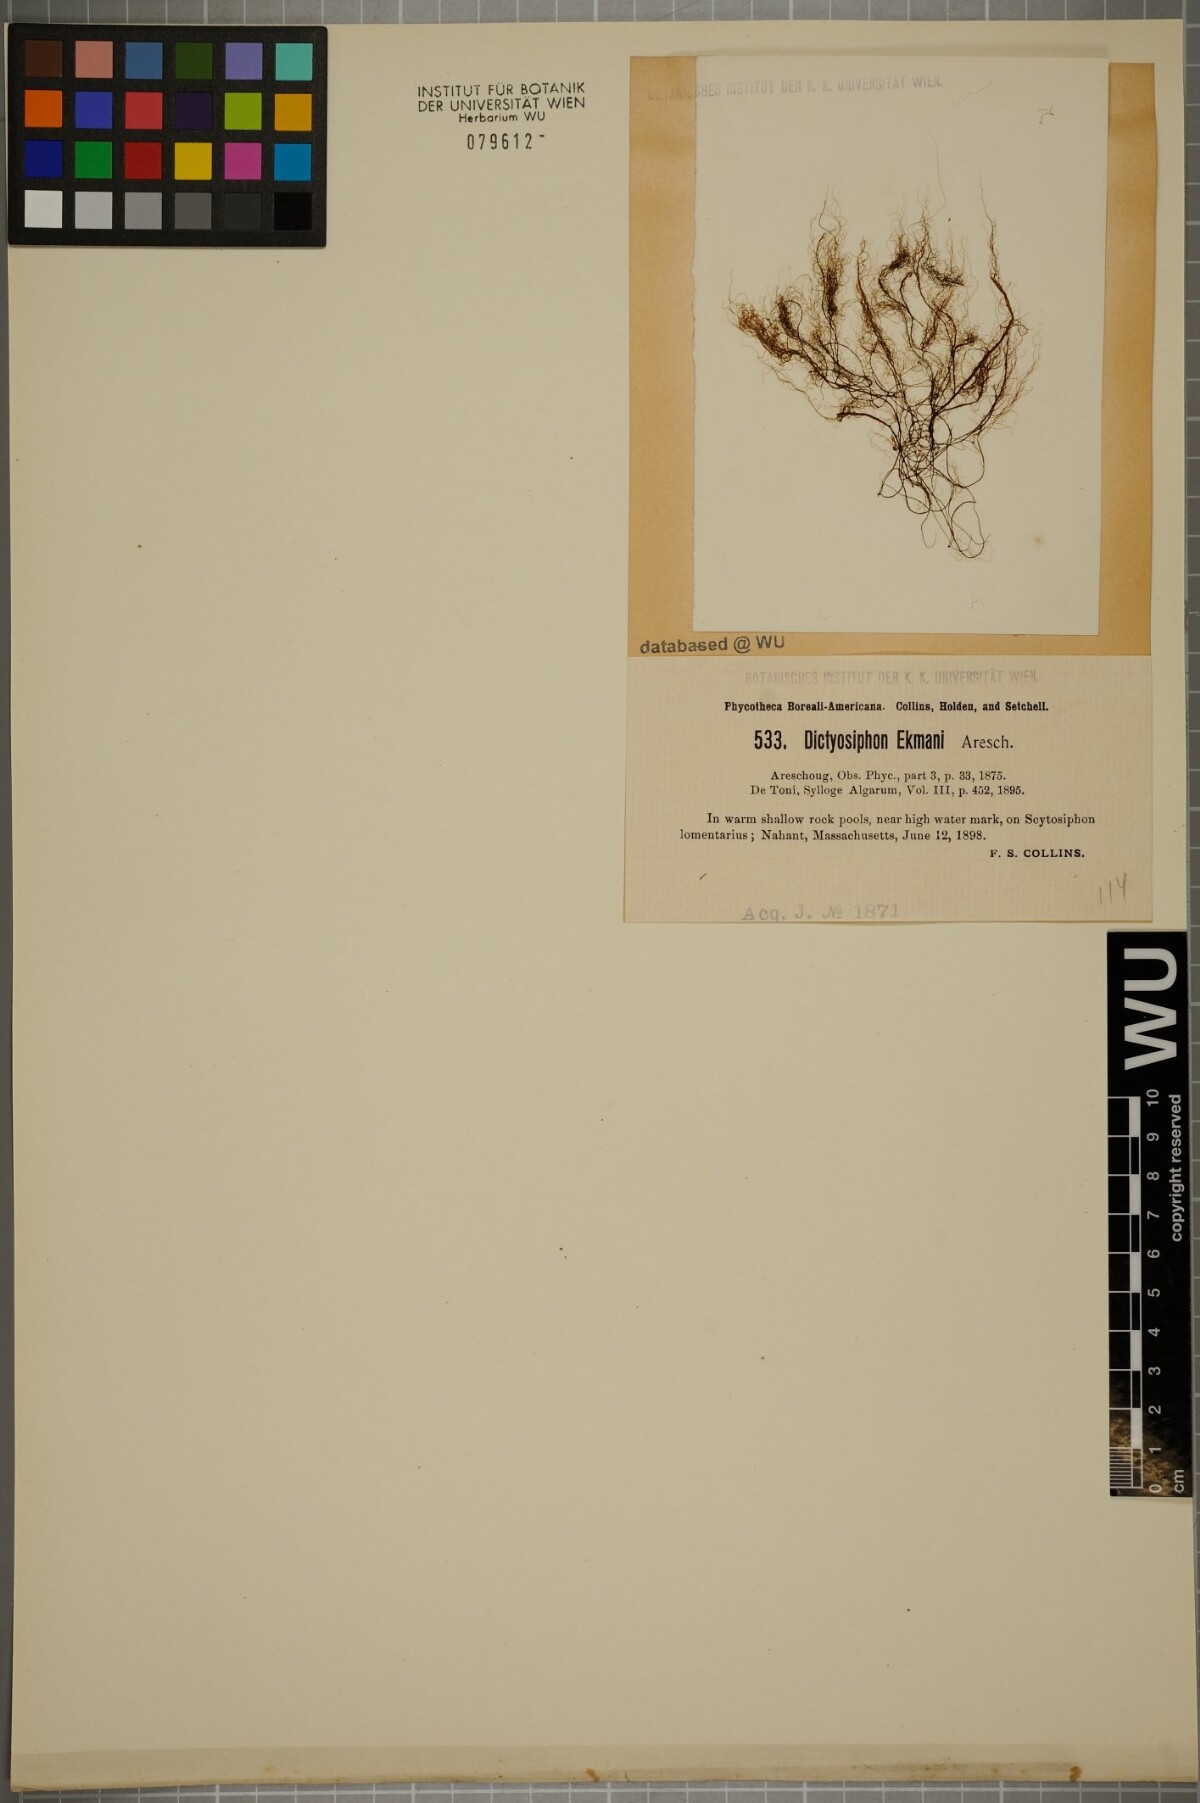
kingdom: Chromista
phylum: Ochrophyta
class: Phaeophyceae
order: Ectocarpales
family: Chordariaceae
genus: Dictyosiphon
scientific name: Dictyosiphon ekmanii
